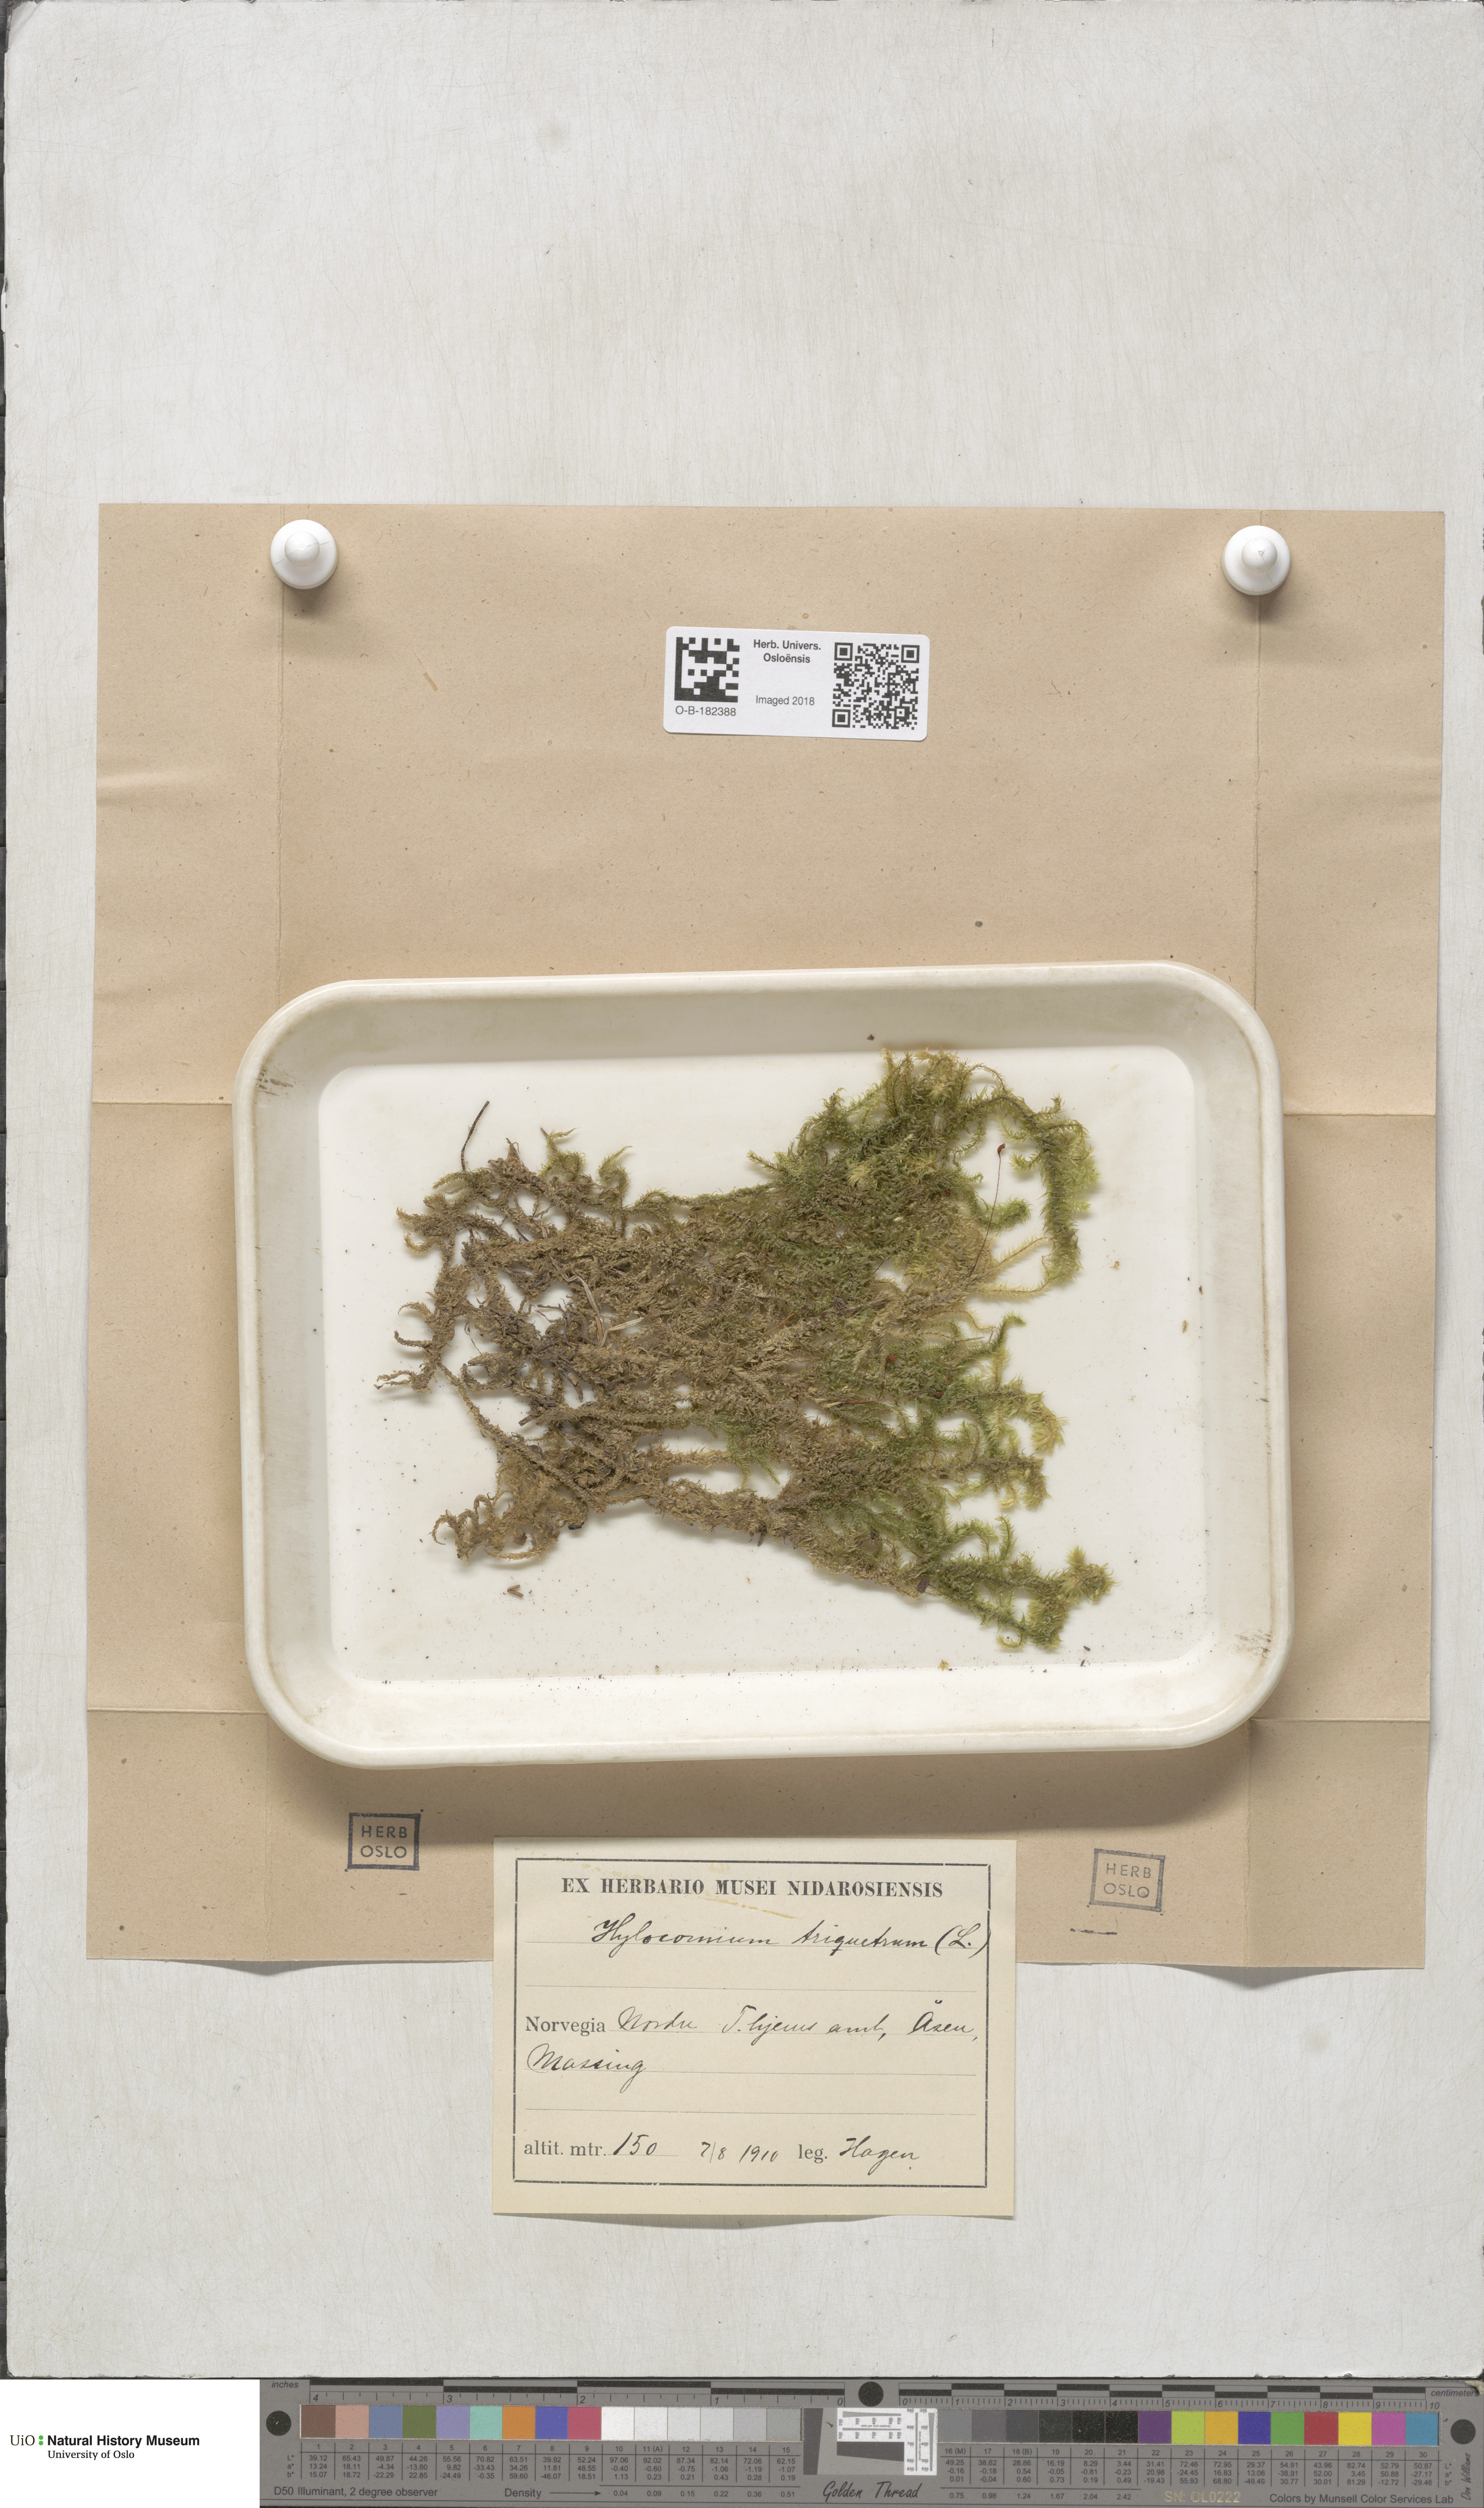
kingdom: Plantae
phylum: Bryophyta
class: Bryopsida
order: Hypnales
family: Hylocomiaceae
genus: Hylocomiadelphus
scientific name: Hylocomiadelphus triquetrus
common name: Rough goose neck moss
